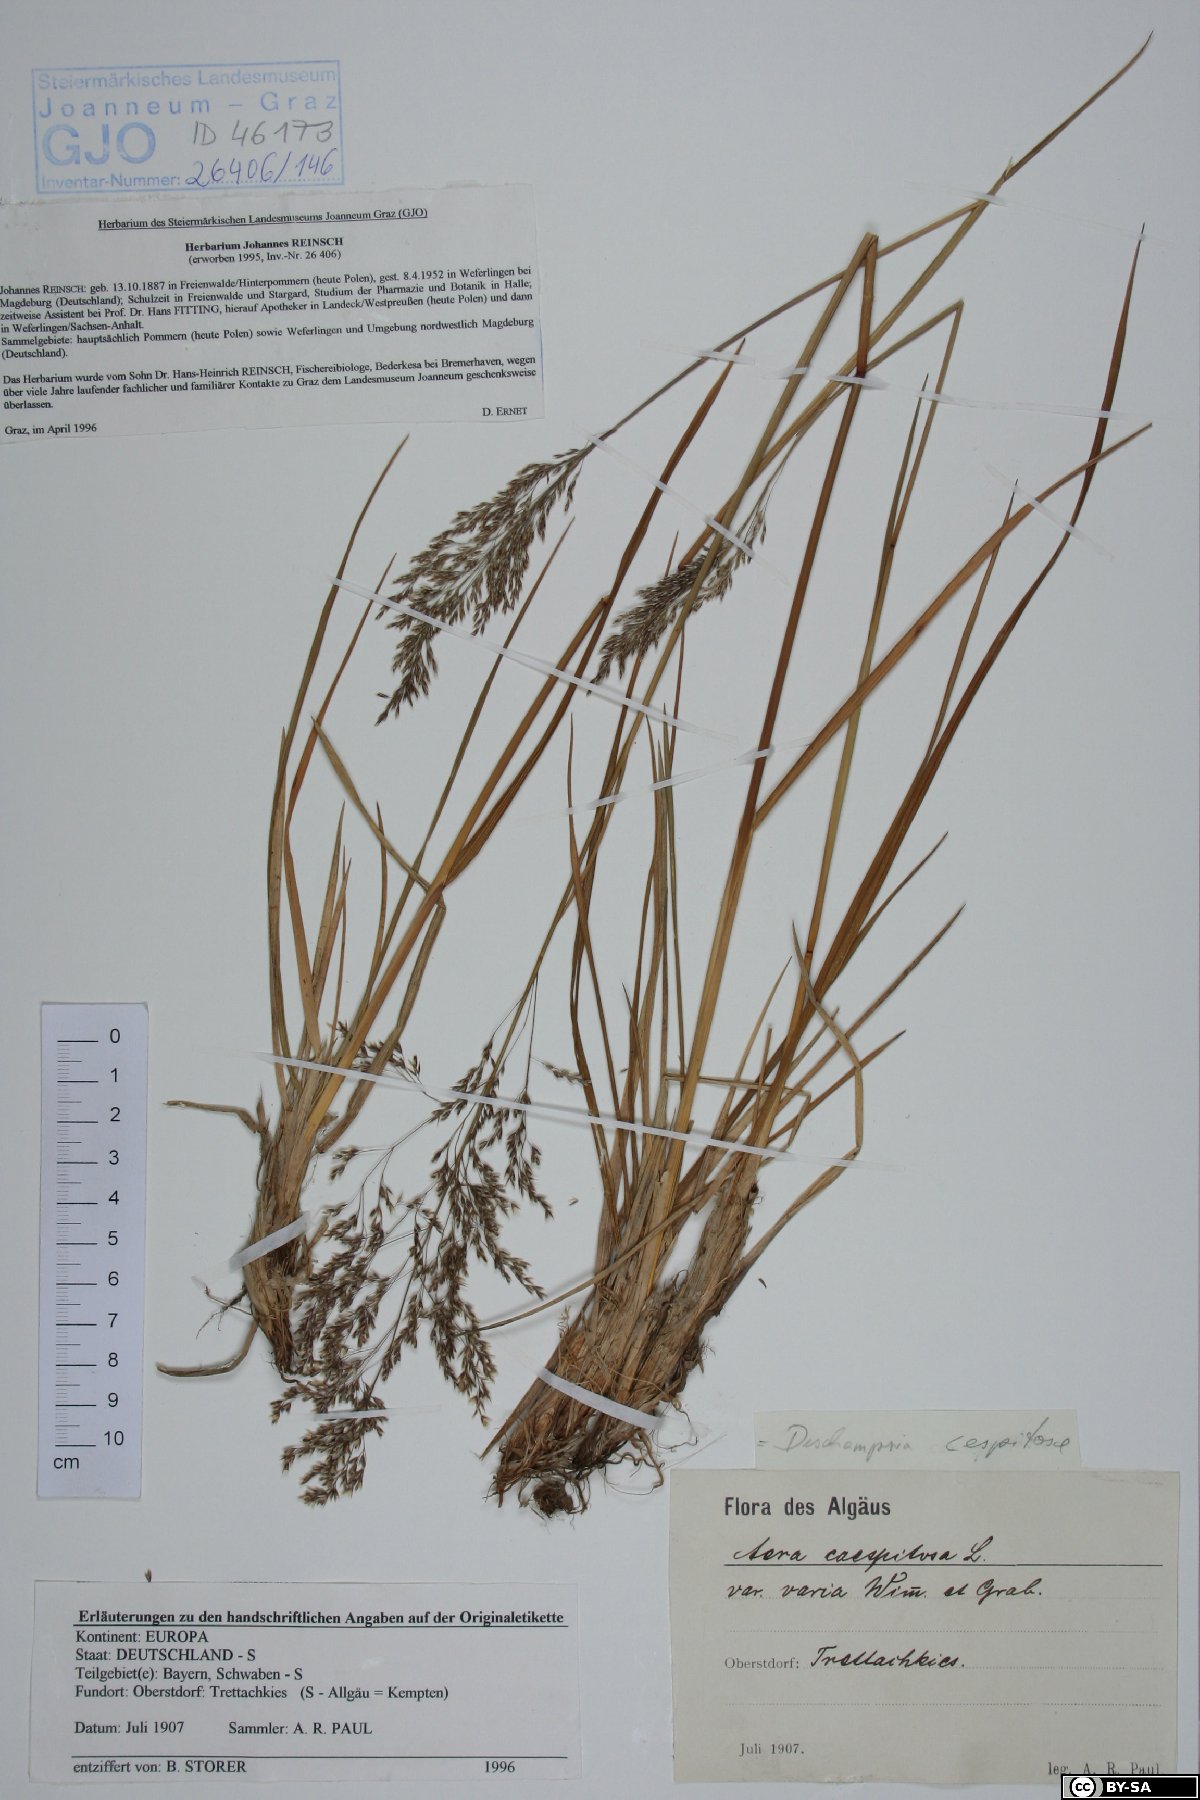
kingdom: Plantae
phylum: Tracheophyta
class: Liliopsida
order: Poales
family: Poaceae
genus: Deschampsia
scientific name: Deschampsia cespitosa
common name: Tufted hair-grass
